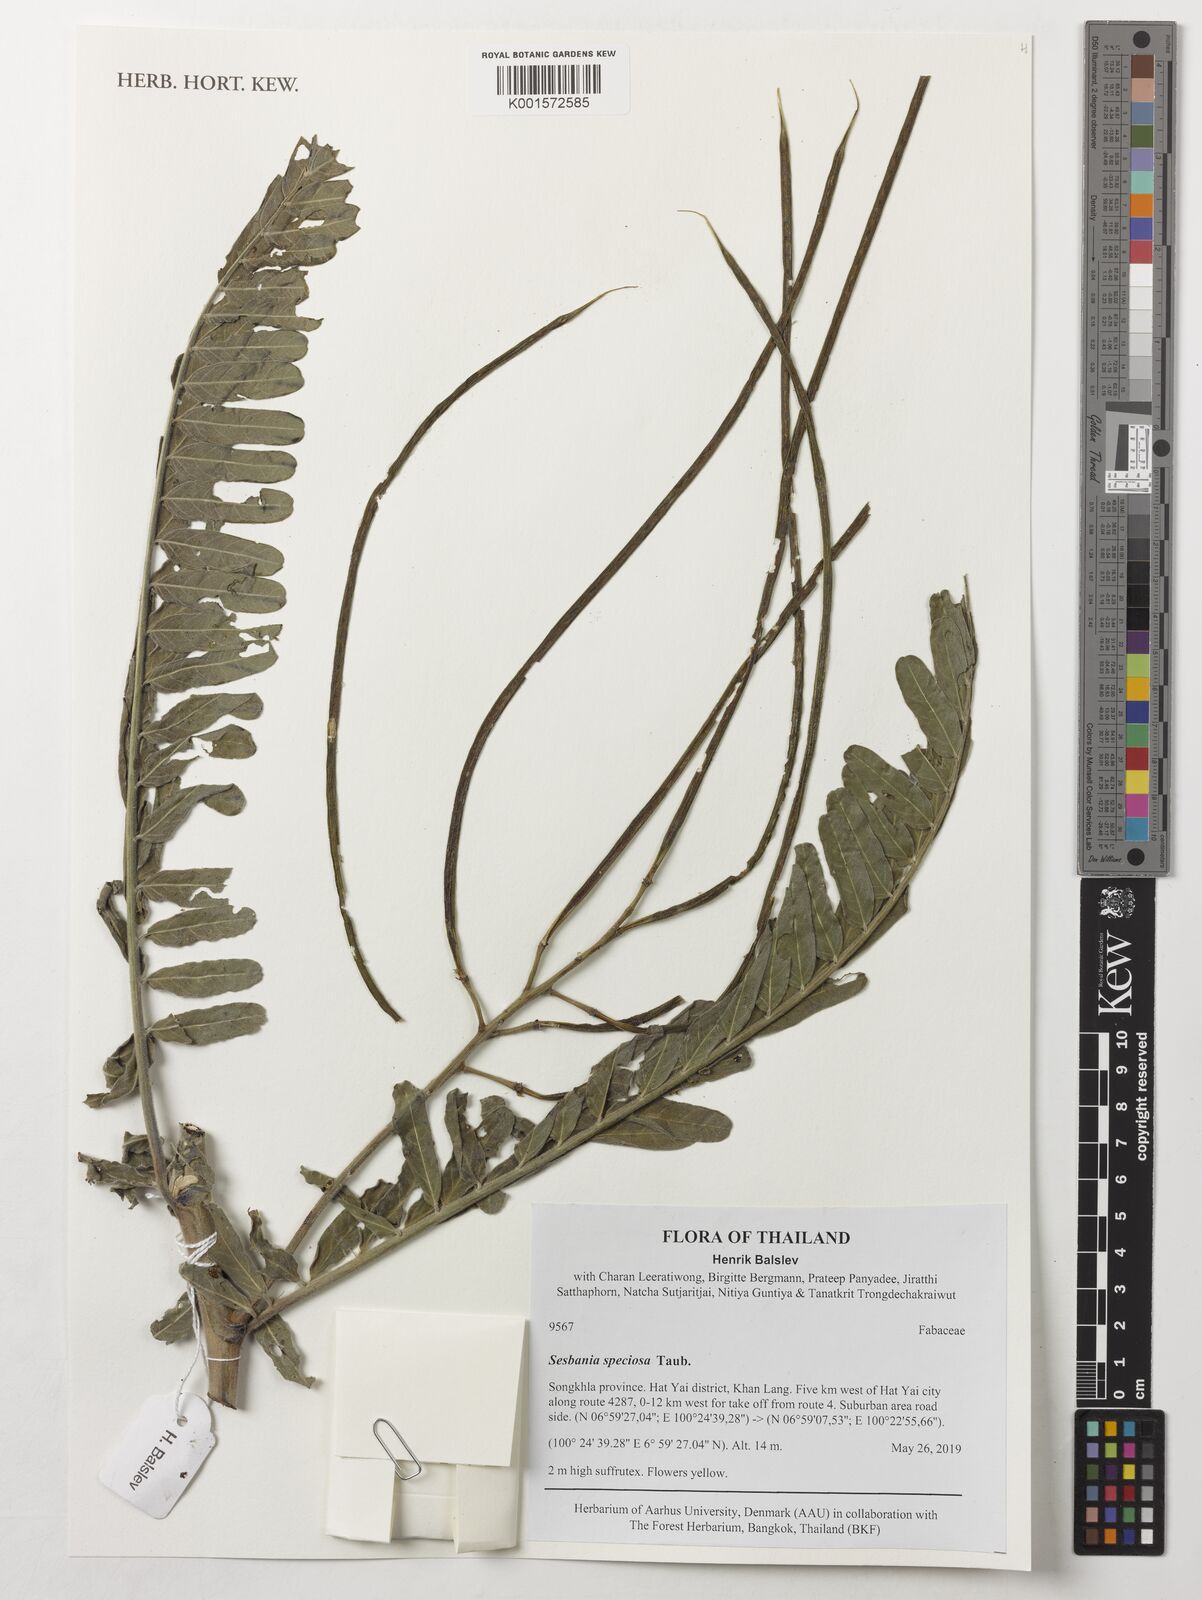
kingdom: Plantae
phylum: Tracheophyta
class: Magnoliopsida
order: Fabales
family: Fabaceae
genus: Sesbania
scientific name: Sesbania speciosa
